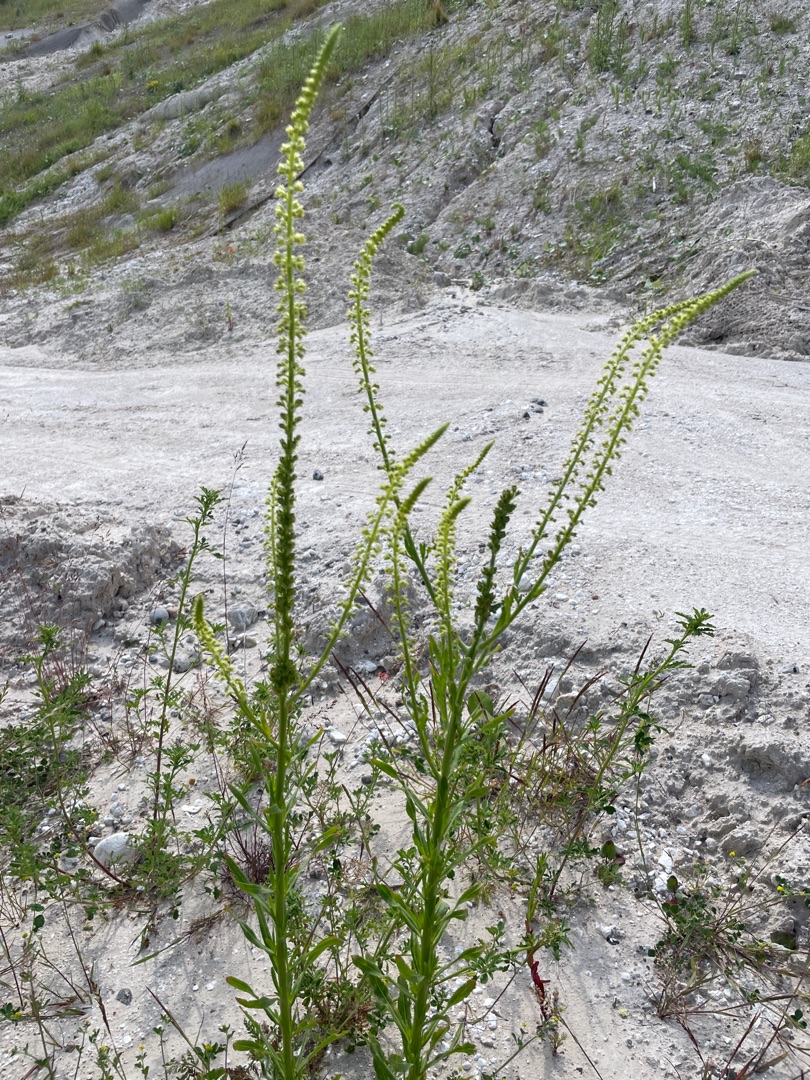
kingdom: Plantae
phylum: Tracheophyta
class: Magnoliopsida
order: Brassicales
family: Resedaceae
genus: Reseda
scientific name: Reseda luteola
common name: Farve-reseda
